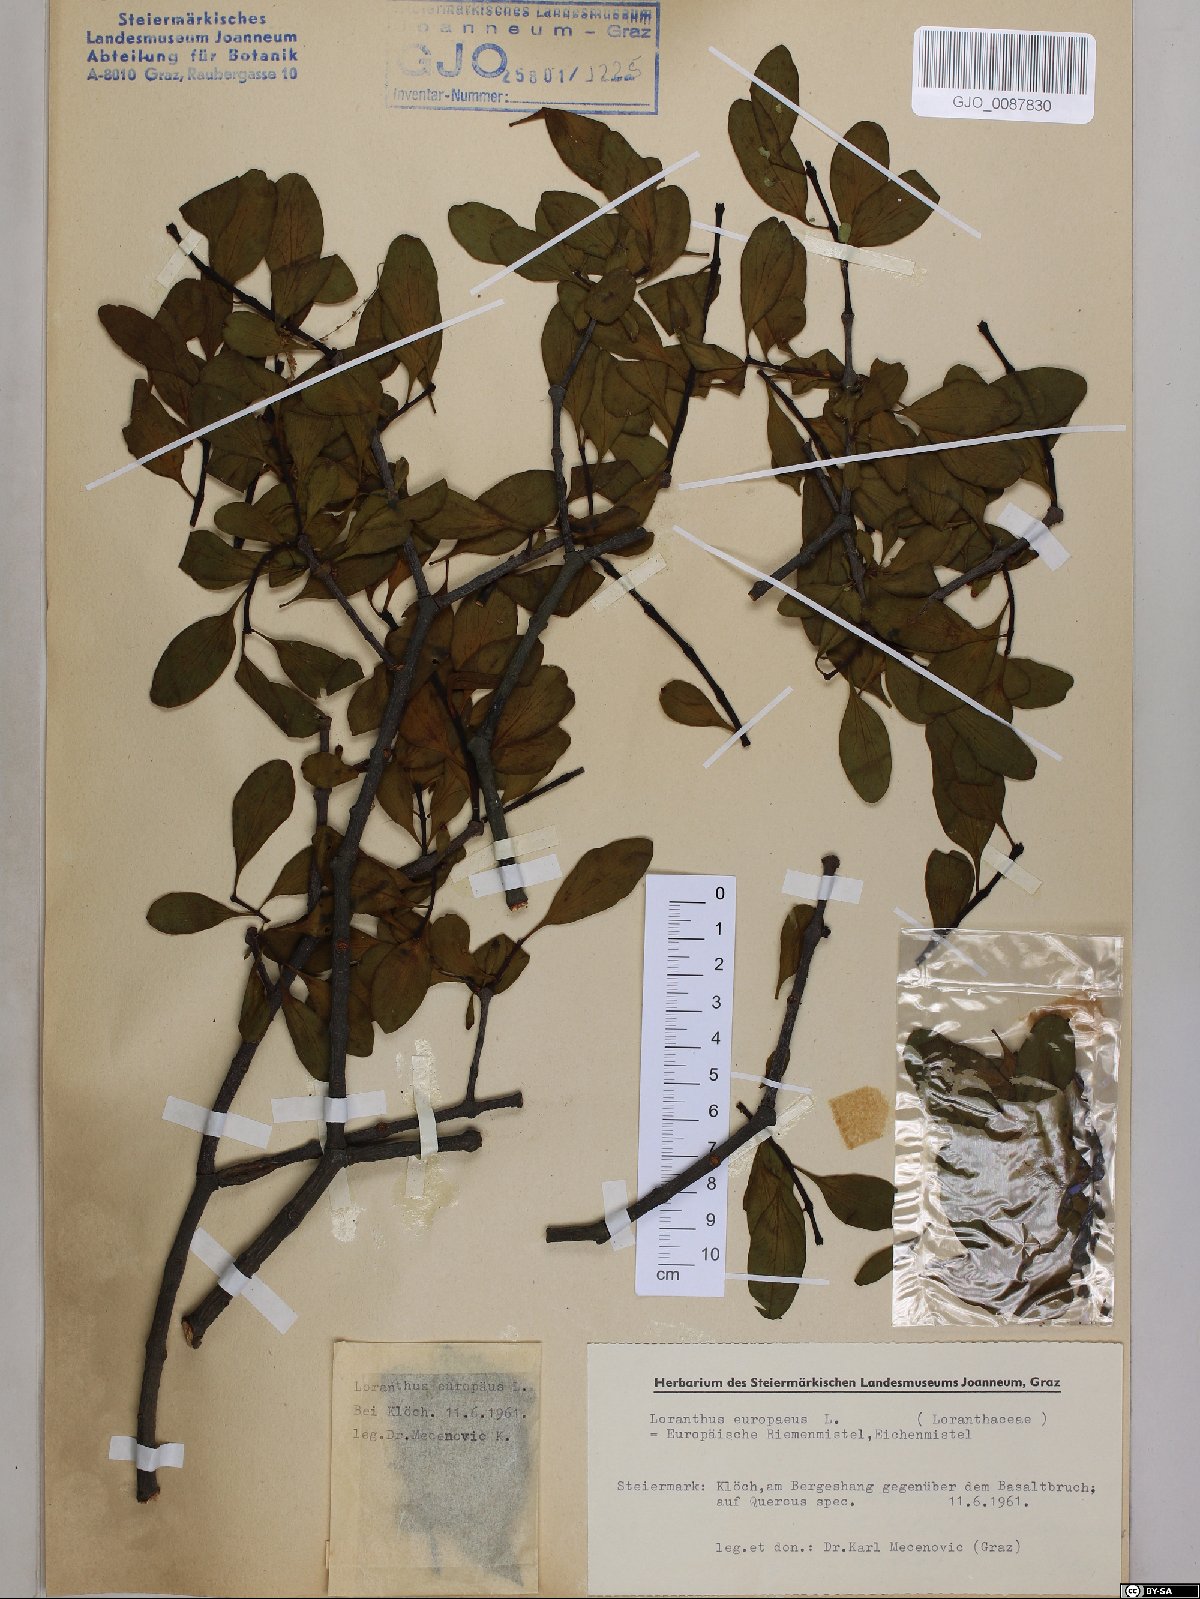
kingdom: Plantae
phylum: Tracheophyta
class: Magnoliopsida
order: Santalales
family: Loranthaceae
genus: Loranthus
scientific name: Loranthus europaeus
